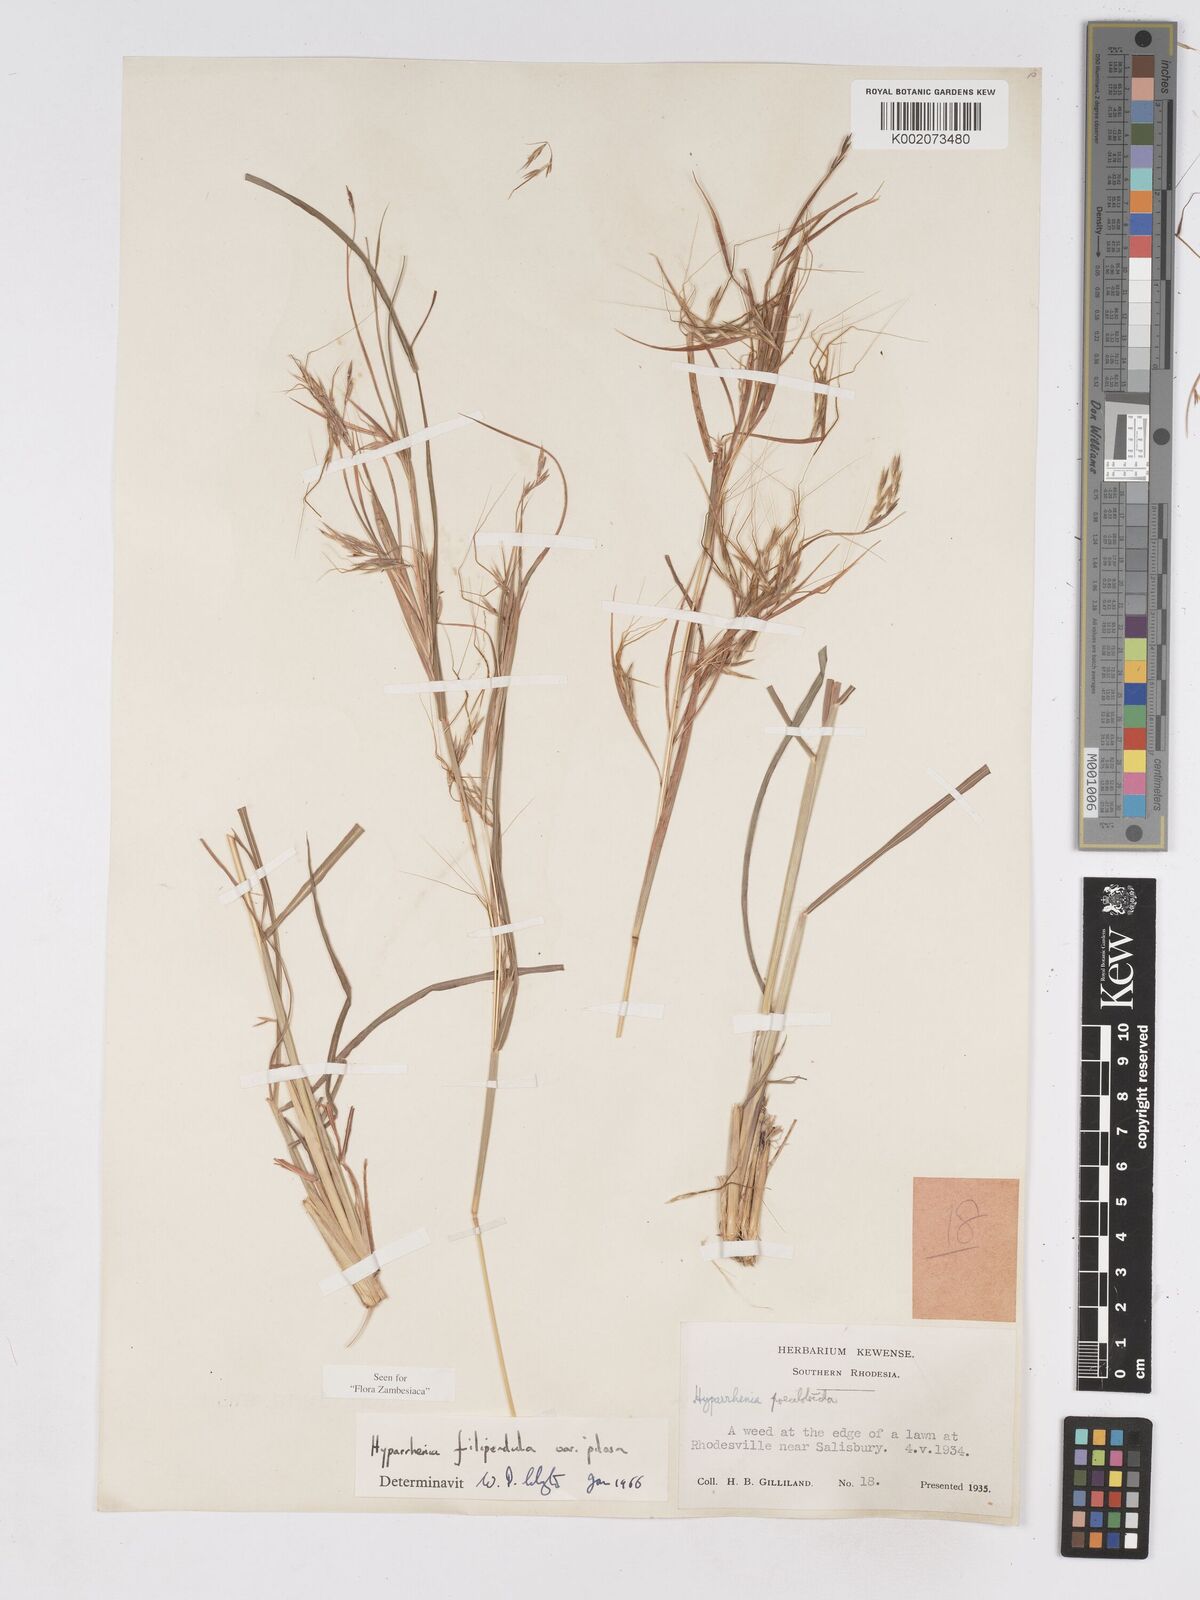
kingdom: Plantae
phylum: Tracheophyta
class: Liliopsida
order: Poales
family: Poaceae
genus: Hyparrhenia
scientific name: Hyparrhenia filipendula
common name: Tambookie grass
